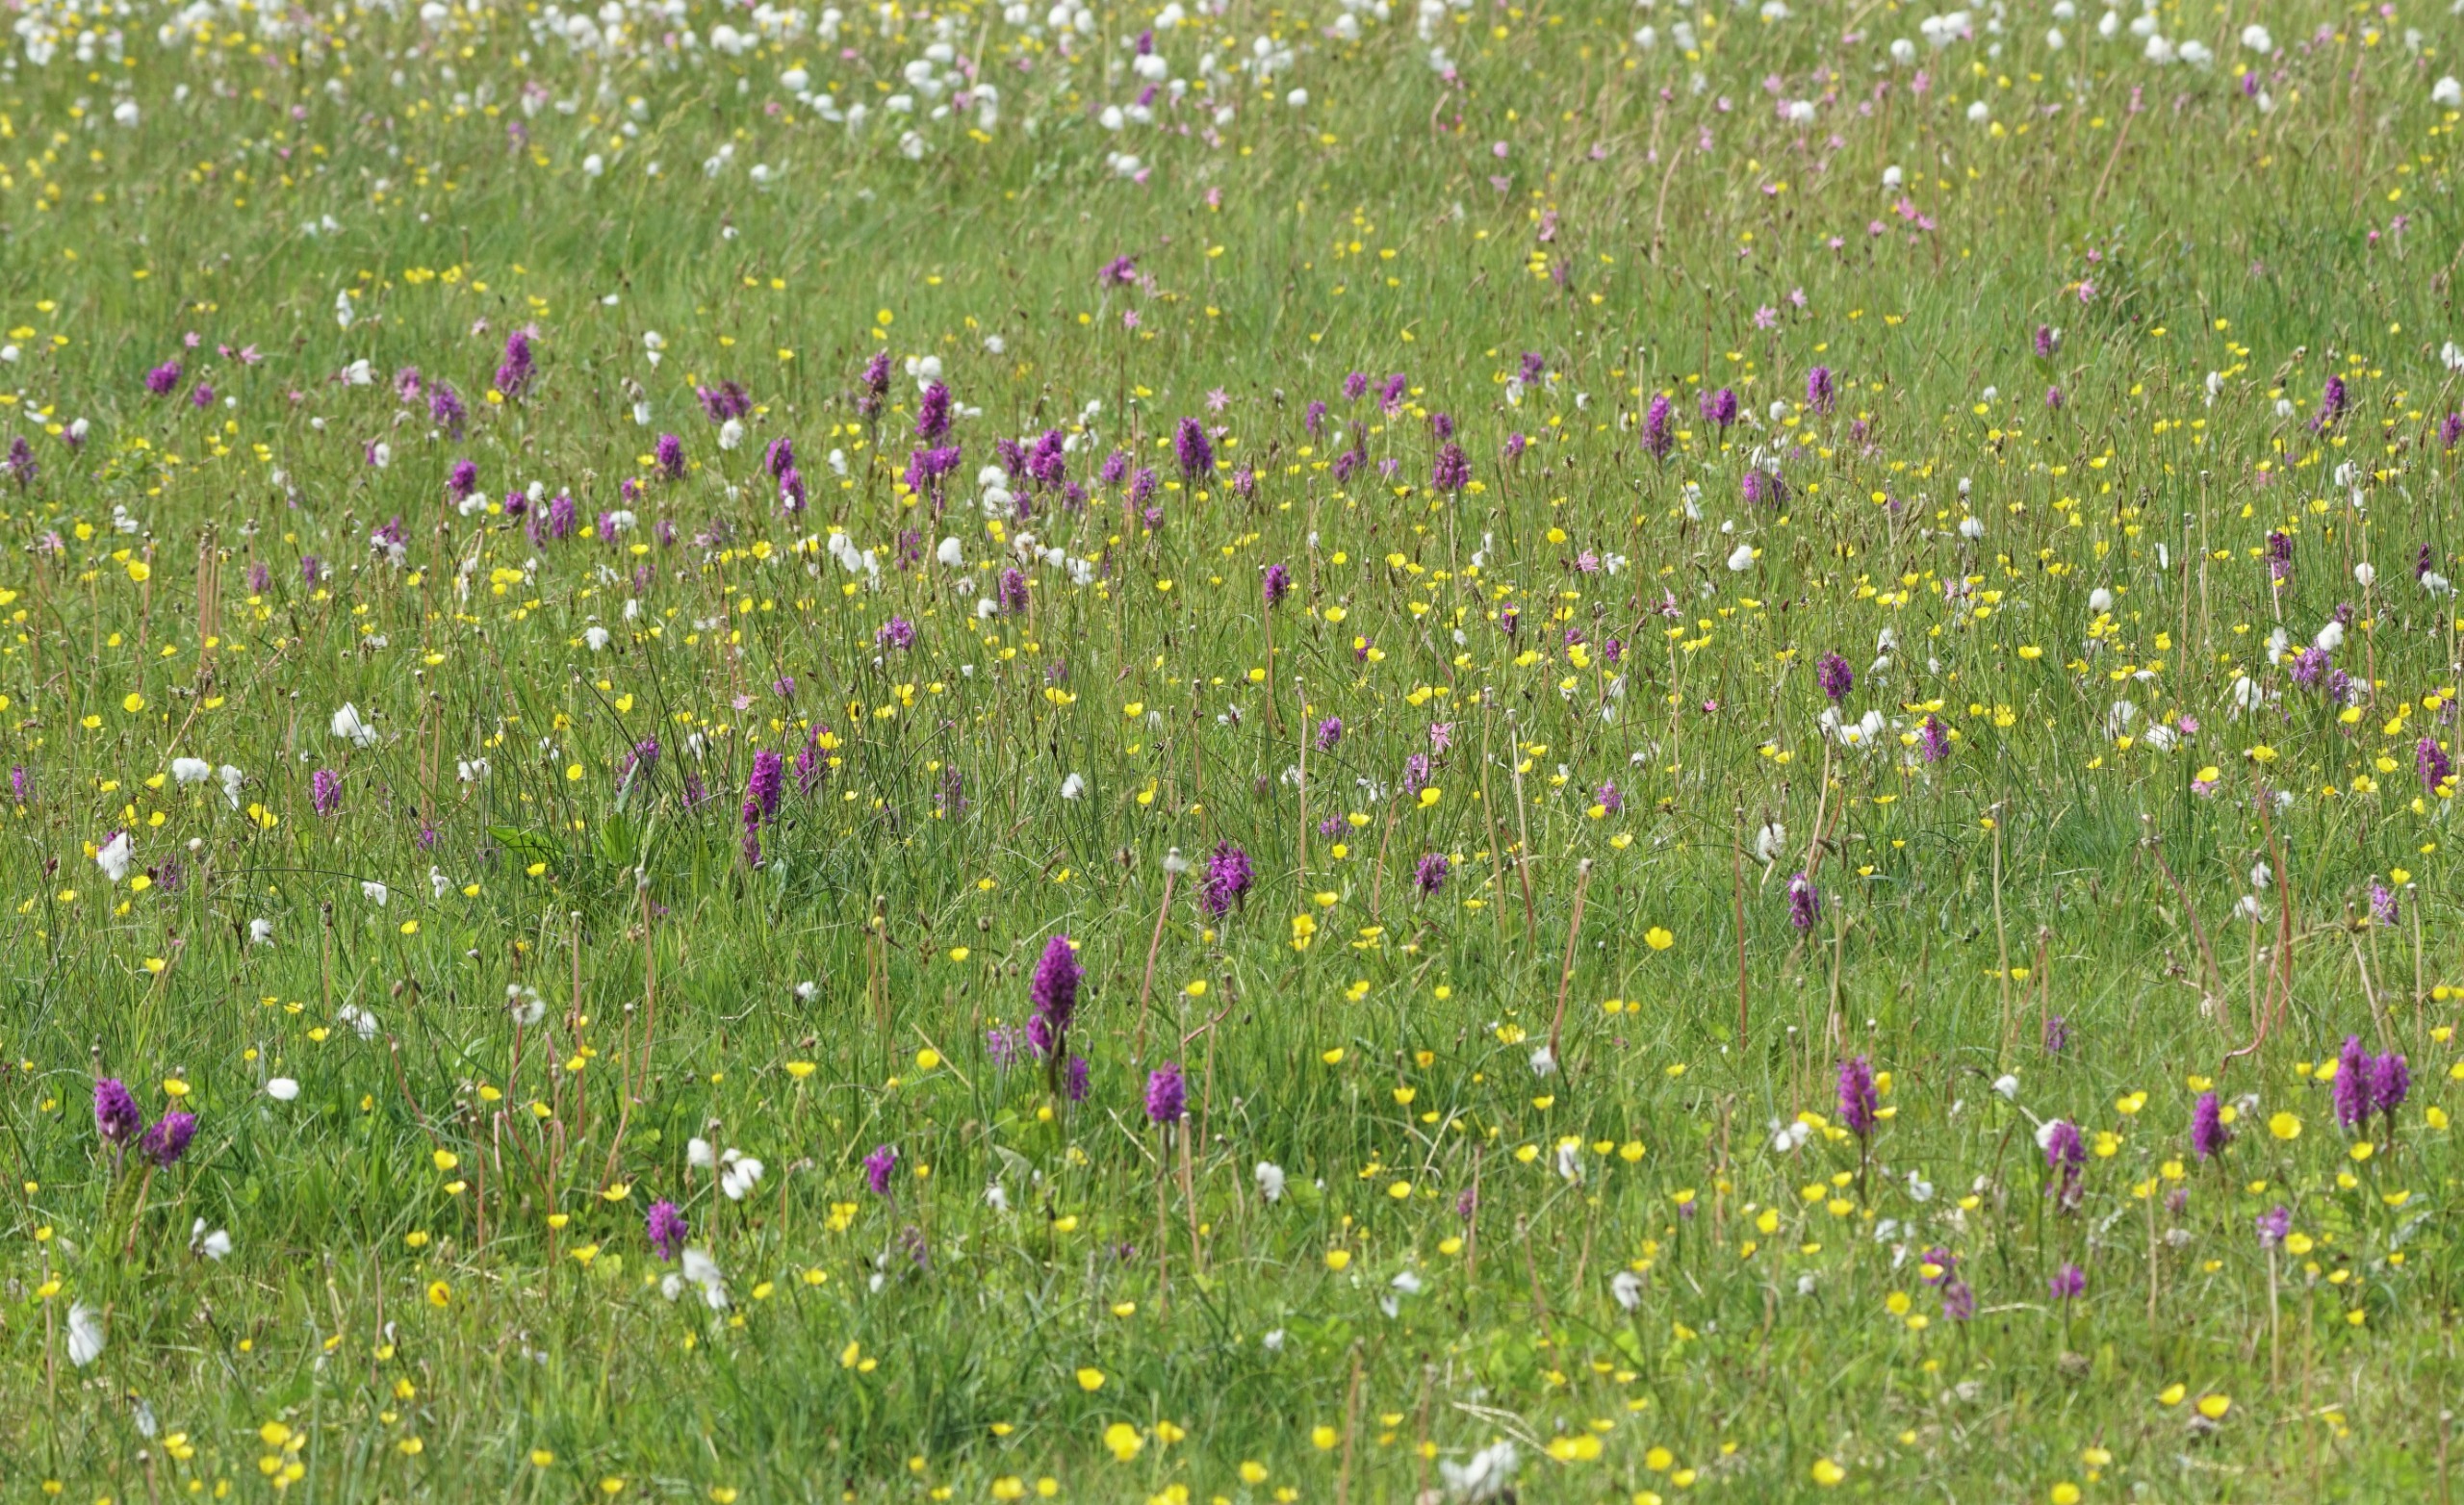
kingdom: Plantae
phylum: Tracheophyta
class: Liliopsida
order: Asparagales
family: Orchidaceae
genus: Dactylorhiza
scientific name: Dactylorhiza majalis
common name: Maj-gøgeurt
